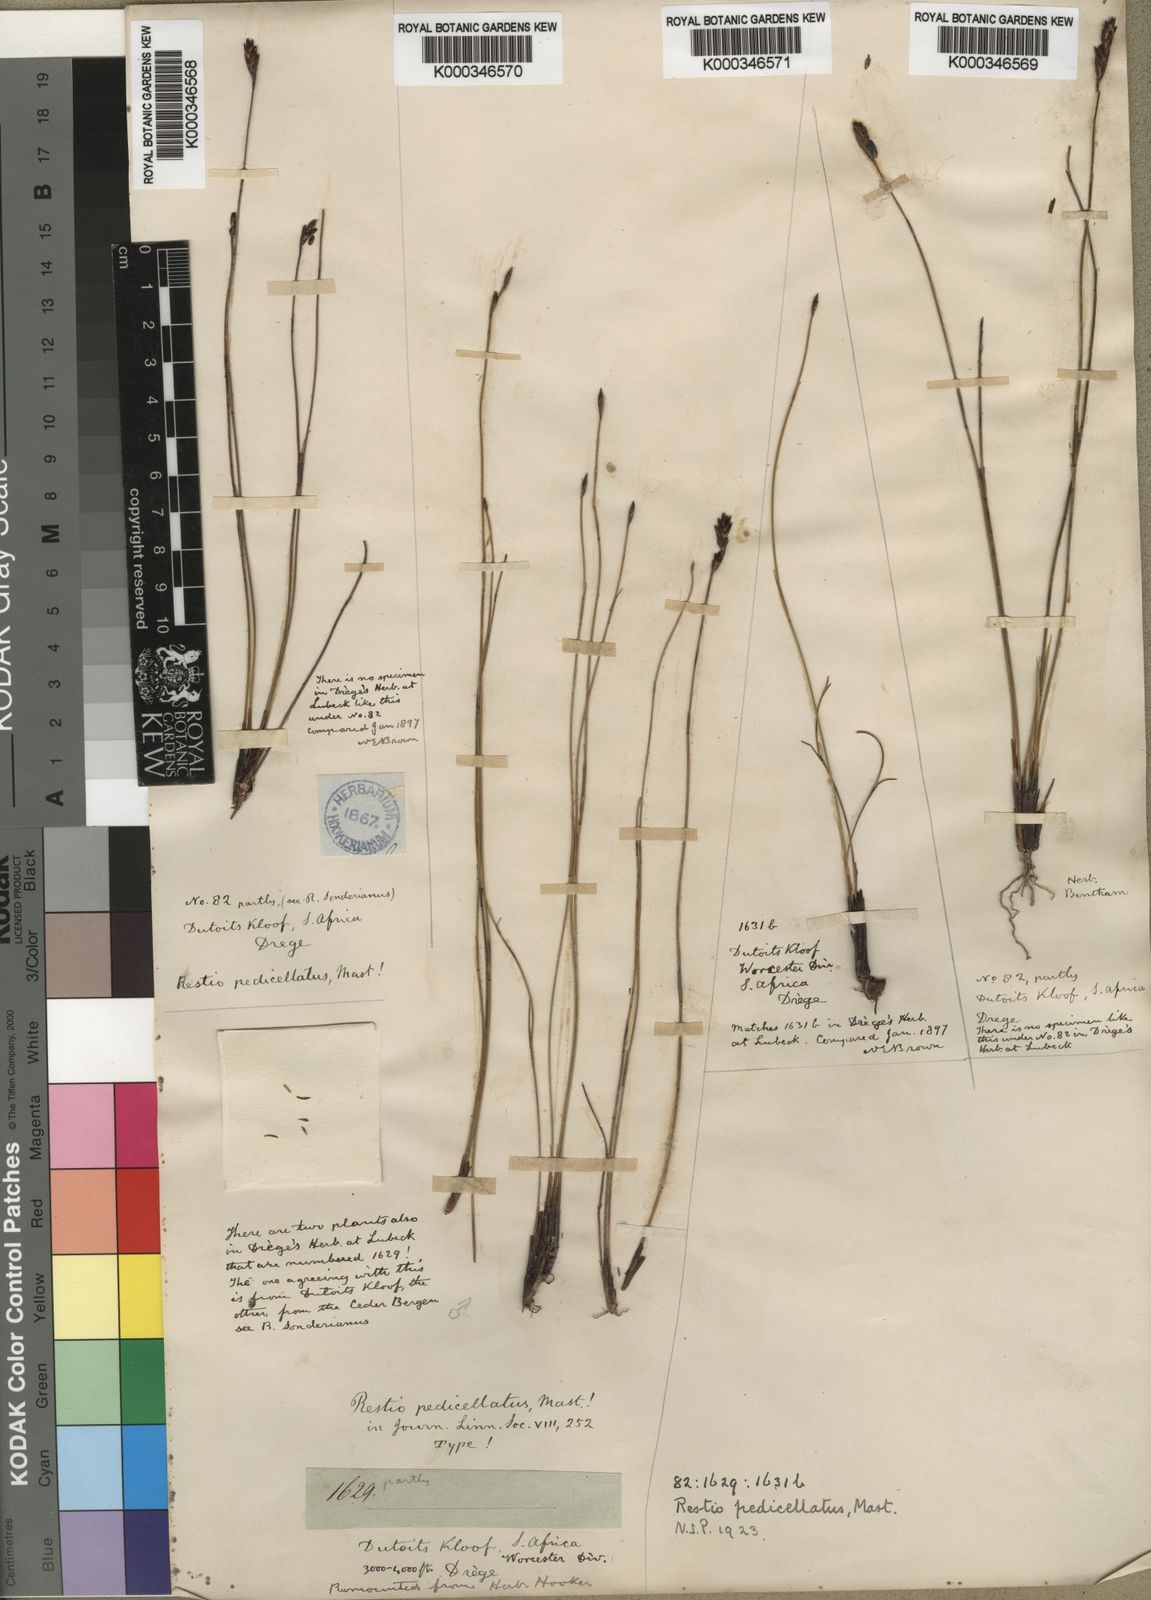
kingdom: Plantae
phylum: Tracheophyta
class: Liliopsida
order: Poales
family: Restionaceae
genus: Restio
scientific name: Restio pedicellatus
